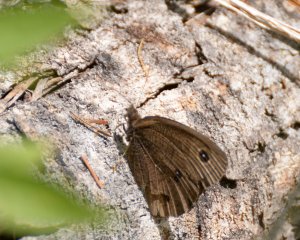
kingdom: Animalia
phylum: Arthropoda
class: Insecta
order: Lepidoptera
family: Nymphalidae
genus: Cercyonis
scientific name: Cercyonis pegala
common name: Common Wood-Nymph
